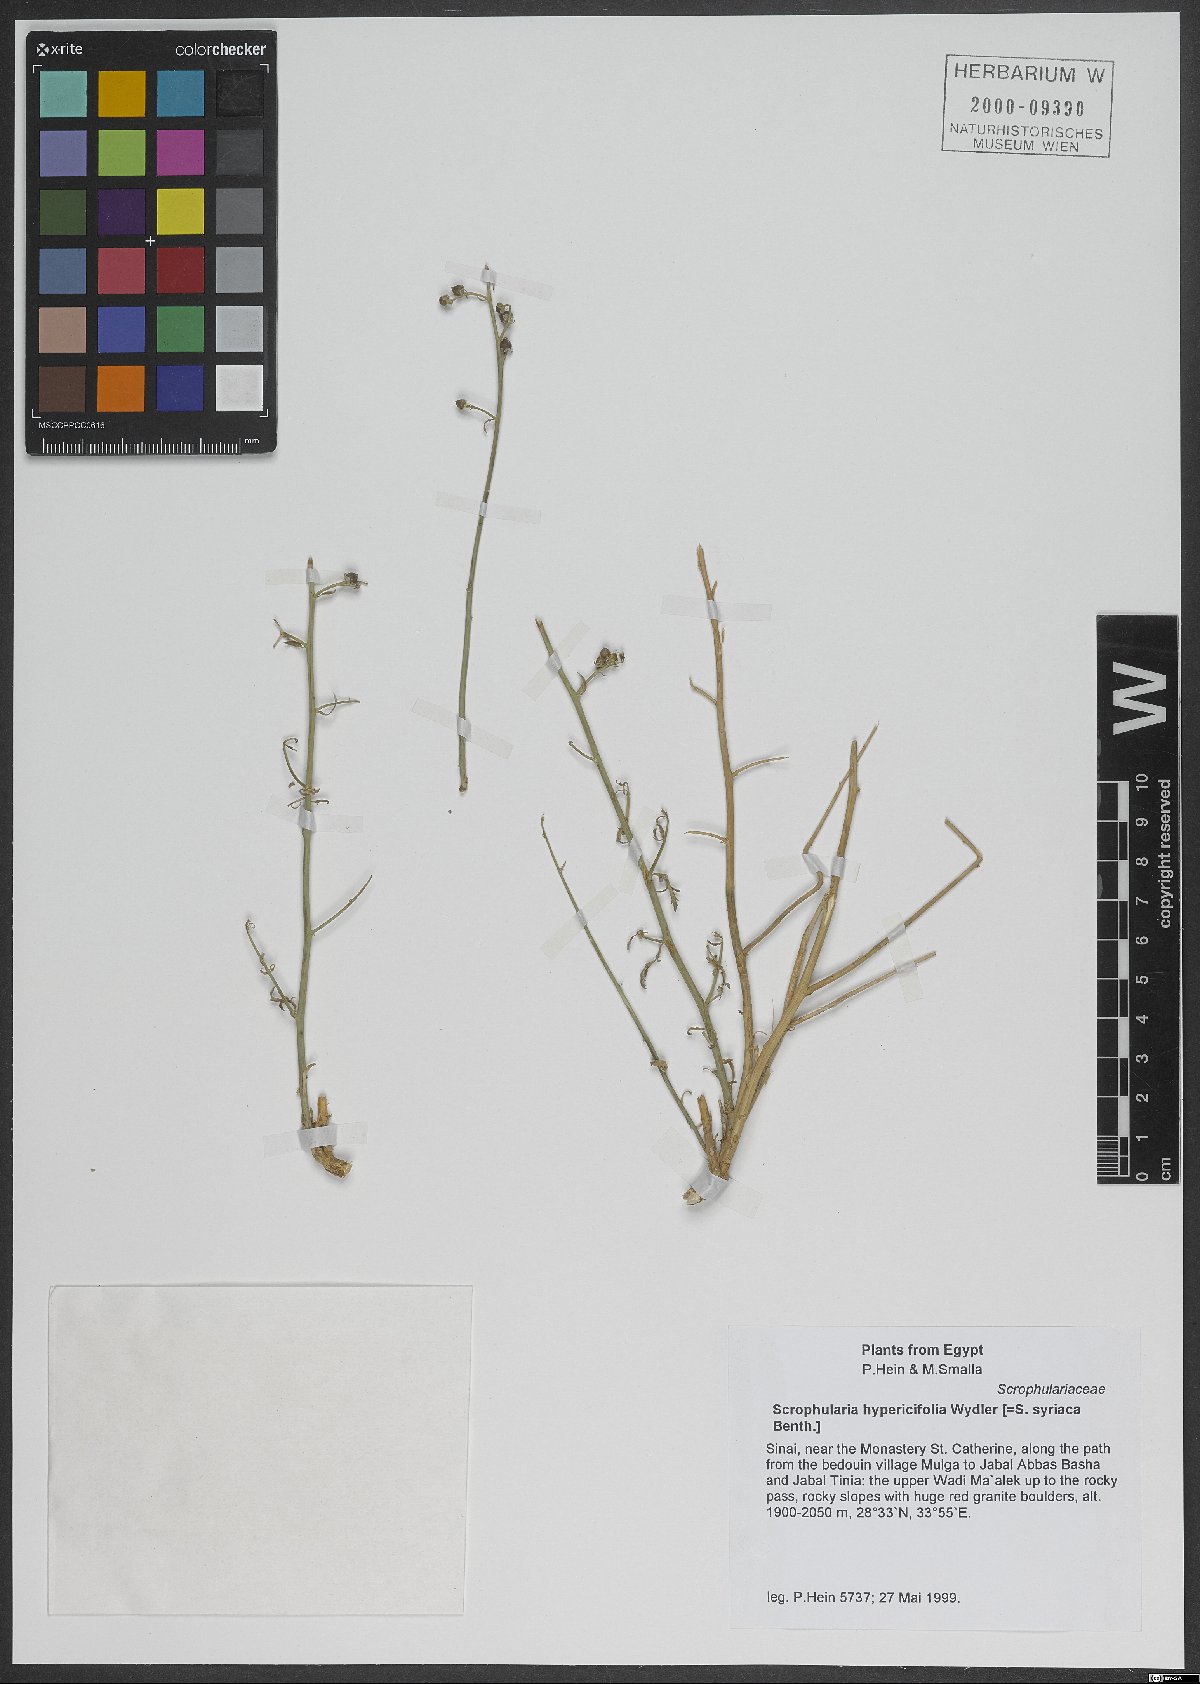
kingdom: Plantae
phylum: Tracheophyta
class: Magnoliopsida
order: Lamiales
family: Scrophulariaceae
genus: Scrophularia
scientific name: Scrophularia hypericifolia
